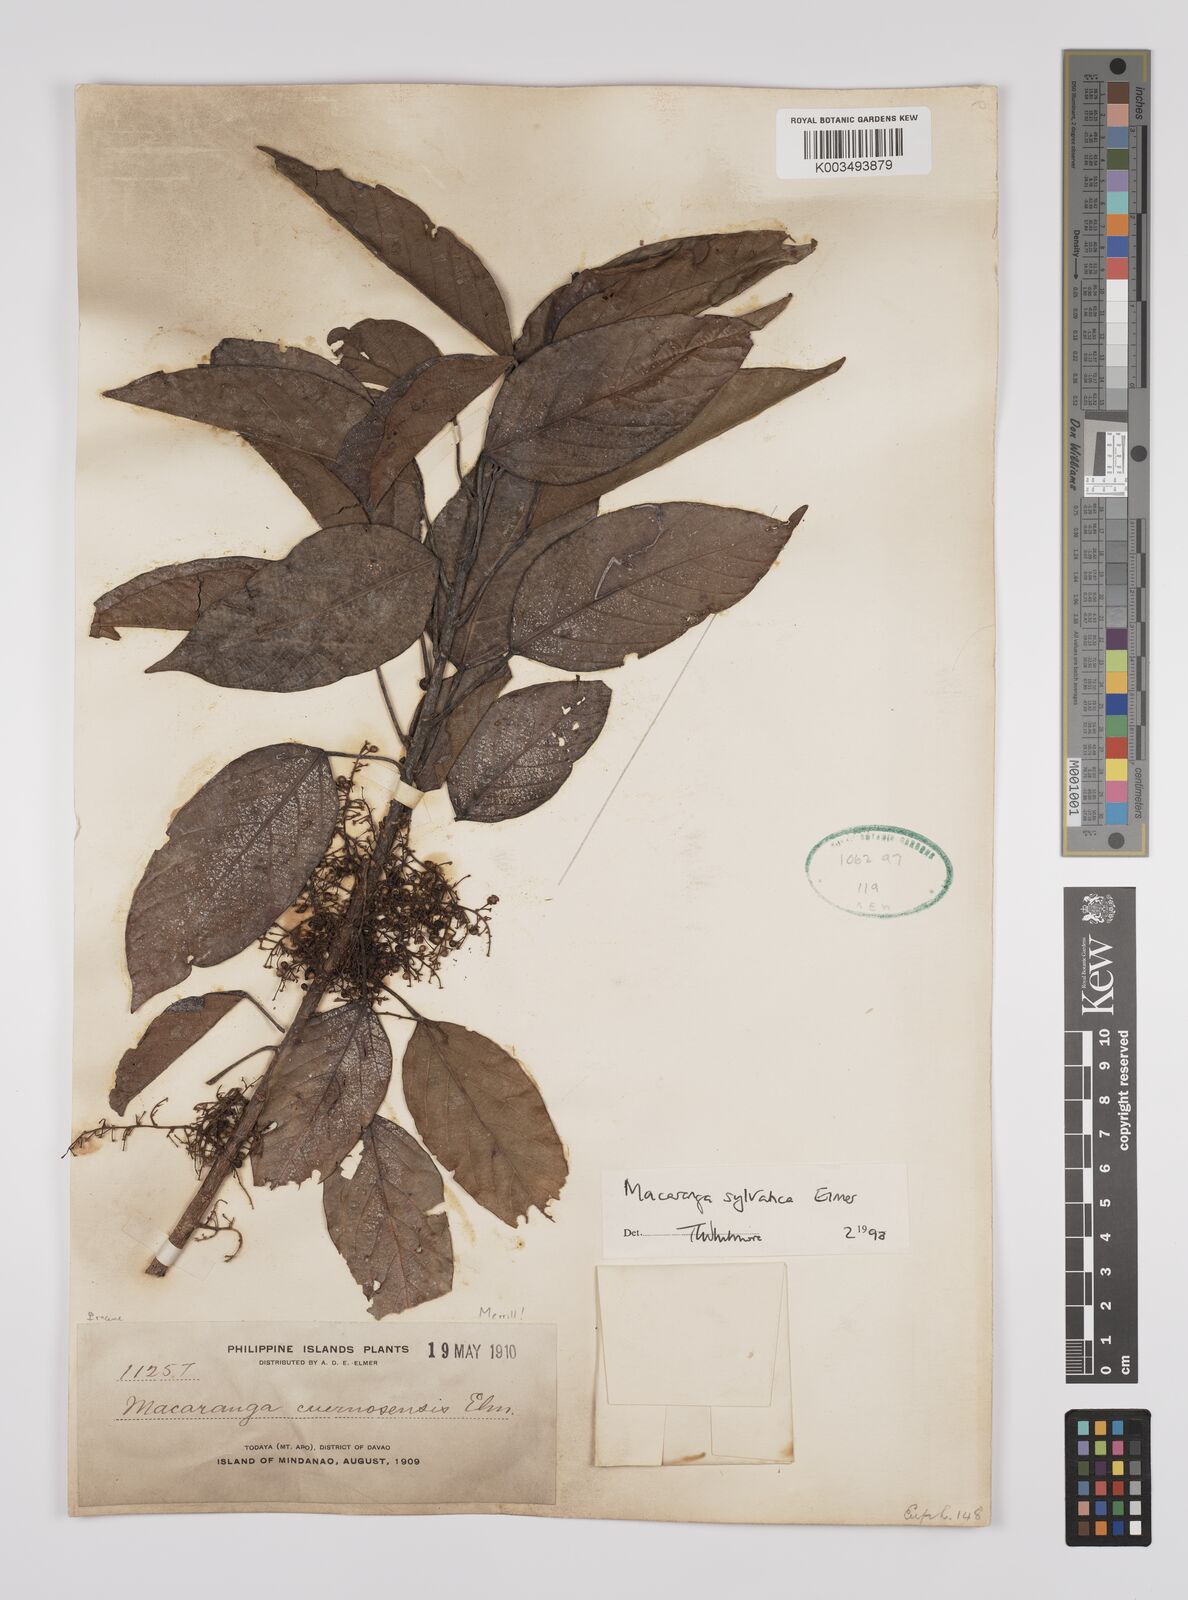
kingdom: Plantae
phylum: Tracheophyta
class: Magnoliopsida
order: Malpighiales
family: Euphorbiaceae
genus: Macaranga
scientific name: Macaranga sylvatica
